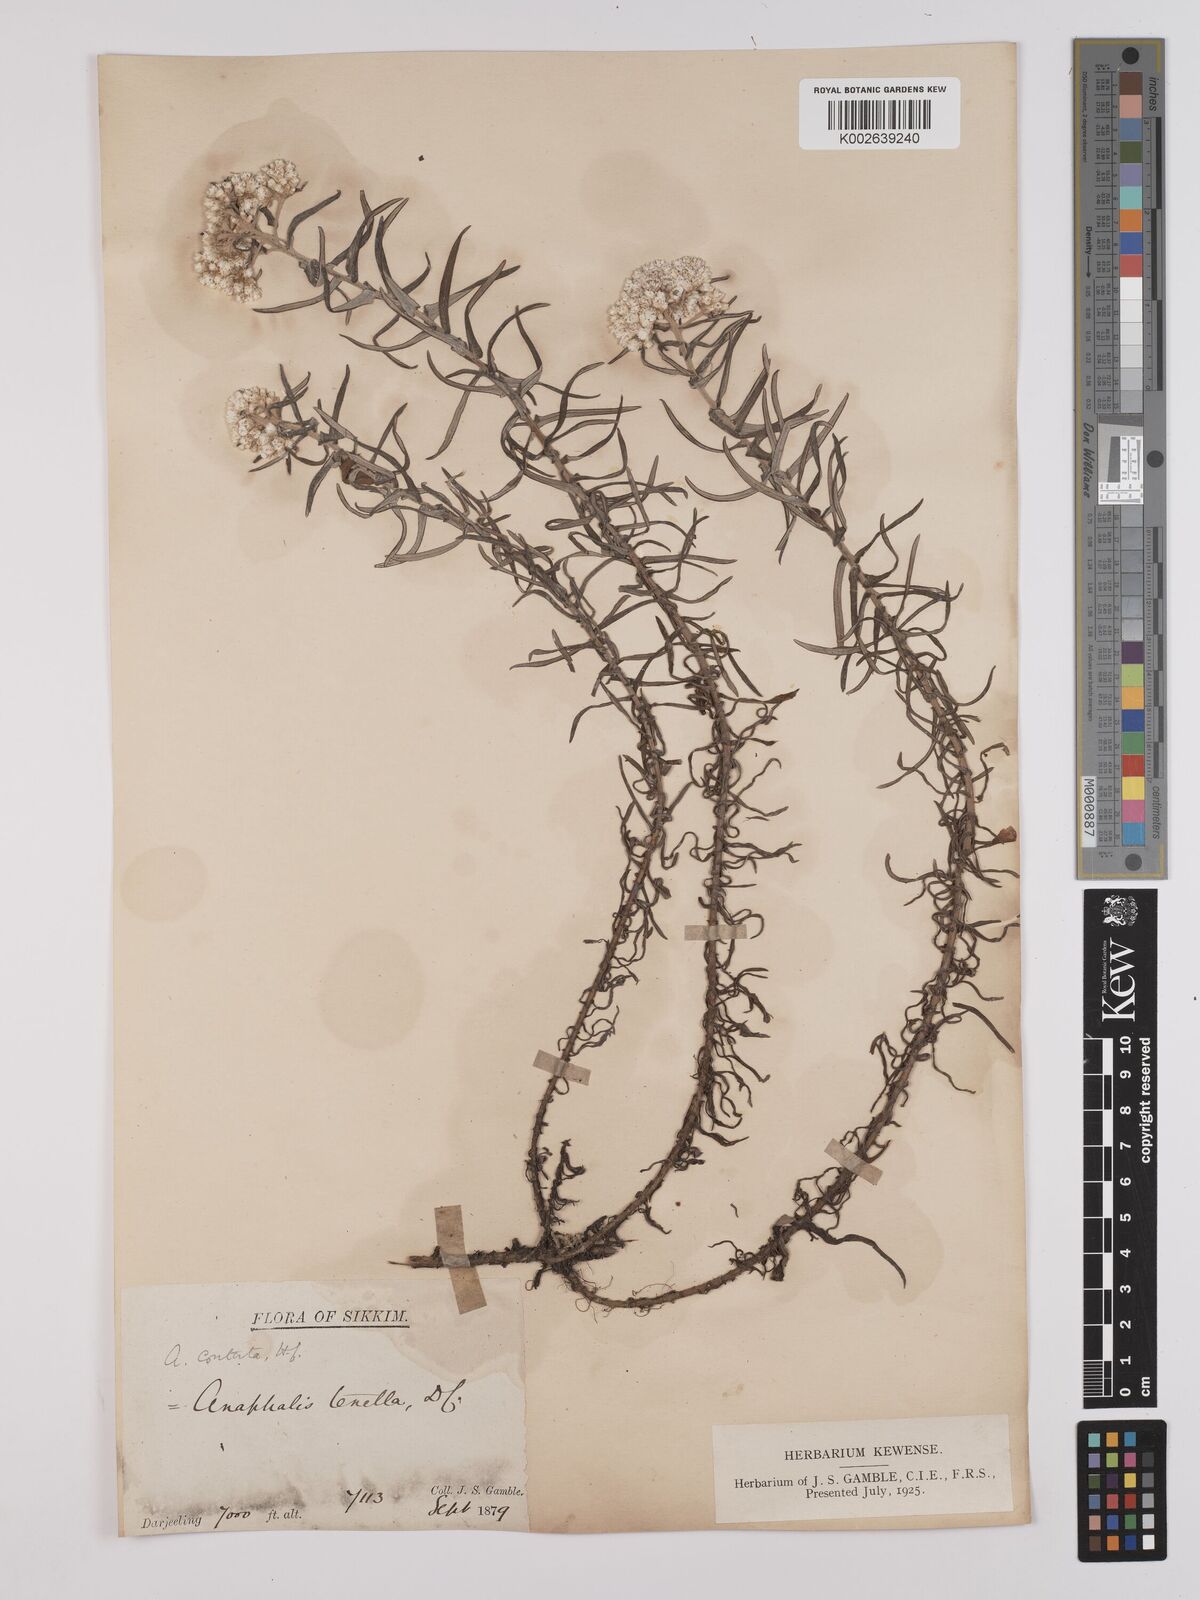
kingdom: Plantae
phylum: Tracheophyta
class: Magnoliopsida
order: Asterales
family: Asteraceae
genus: Anaphalis
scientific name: Anaphalis contorta
